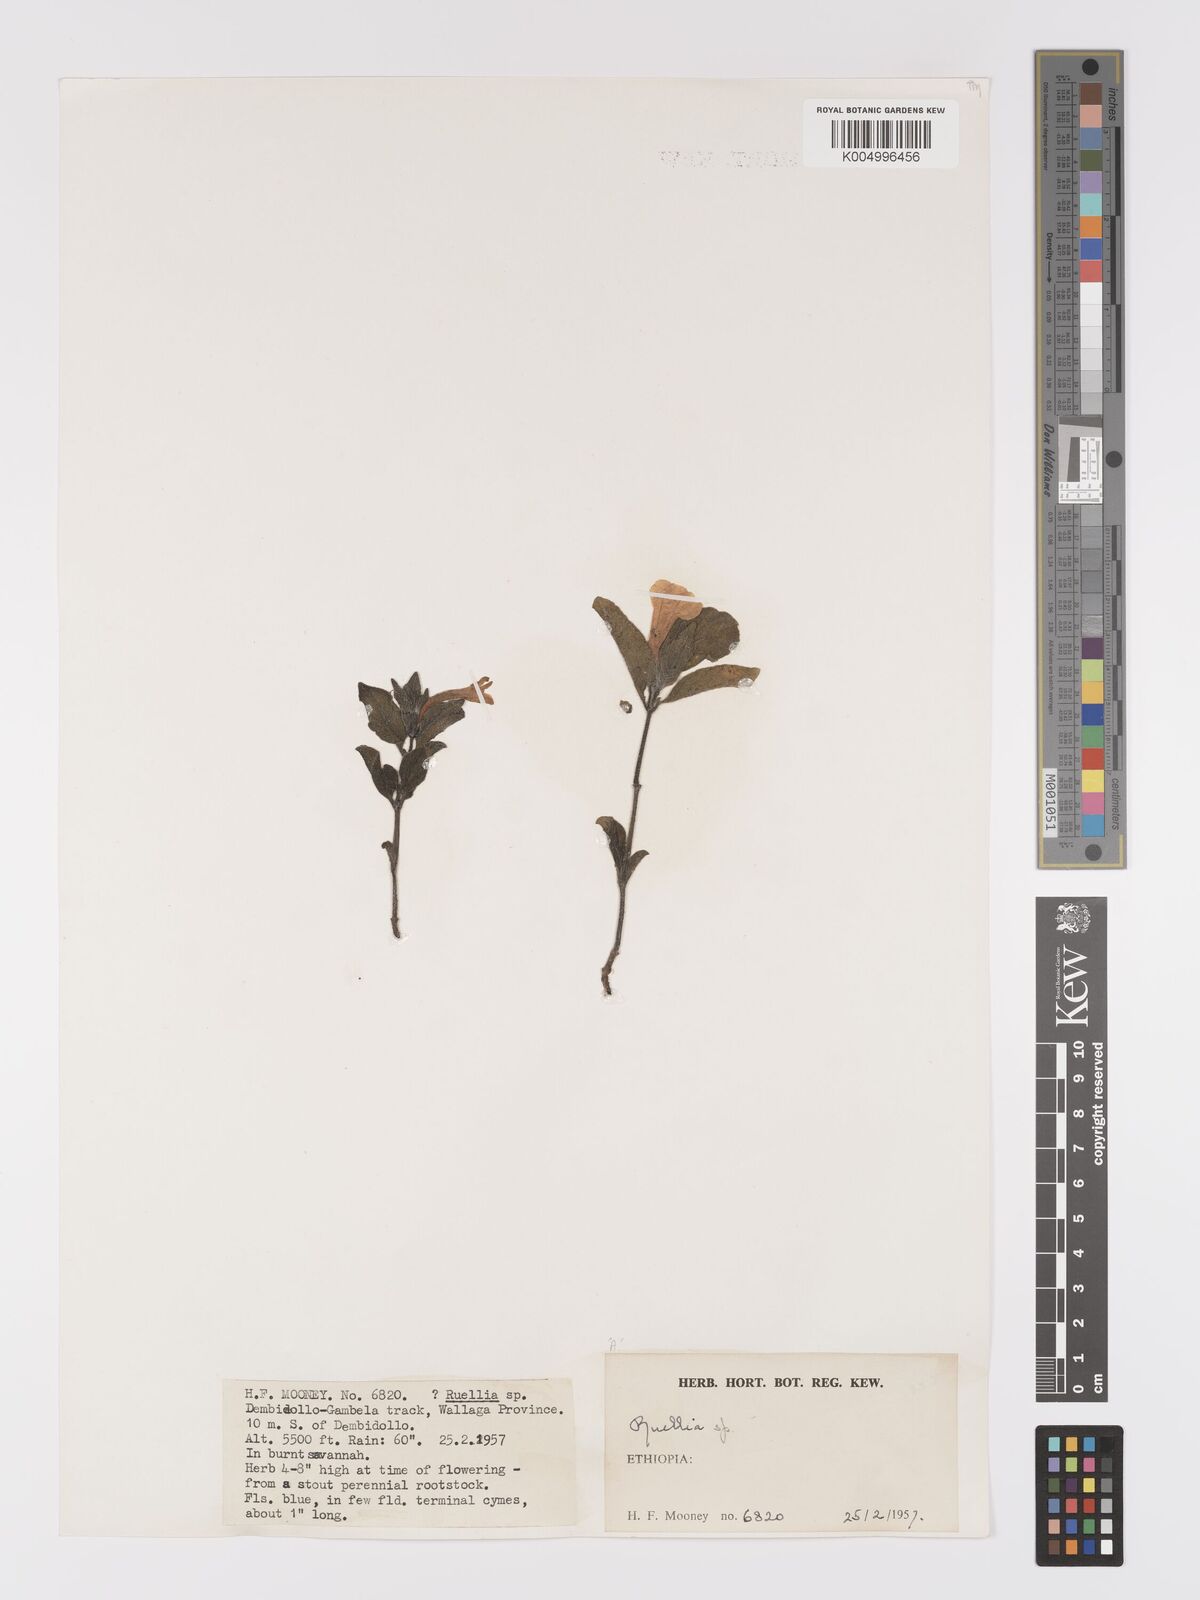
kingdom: Plantae
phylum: Tracheophyta
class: Magnoliopsida
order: Lamiales
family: Acanthaceae
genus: Ruellia
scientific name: Ruellia
